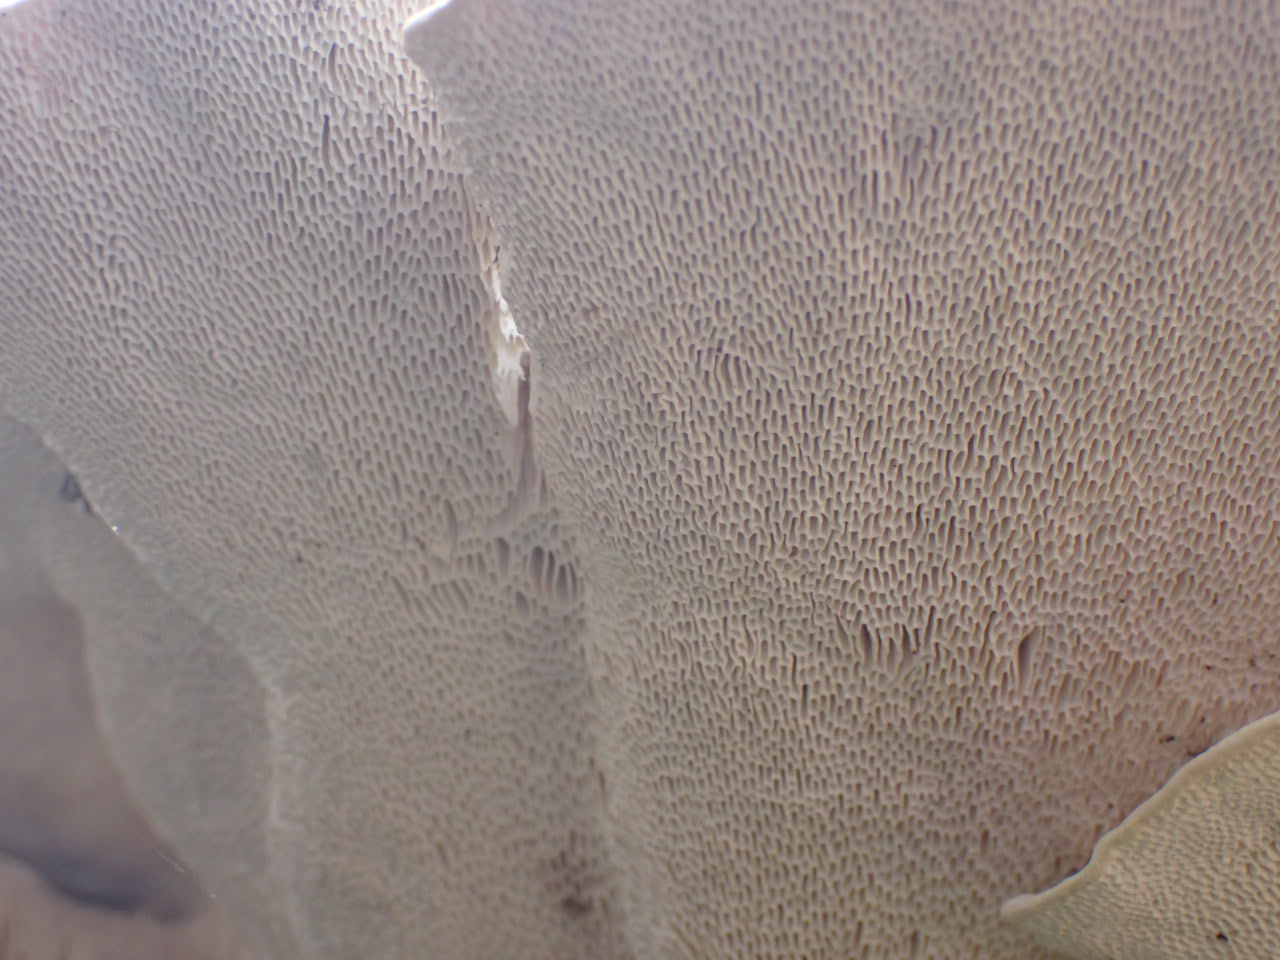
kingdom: Fungi
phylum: Basidiomycota
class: Agaricomycetes
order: Polyporales
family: Polyporaceae
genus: Trametes
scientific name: Trametes gibbosa
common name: puklet læderporesvamp
